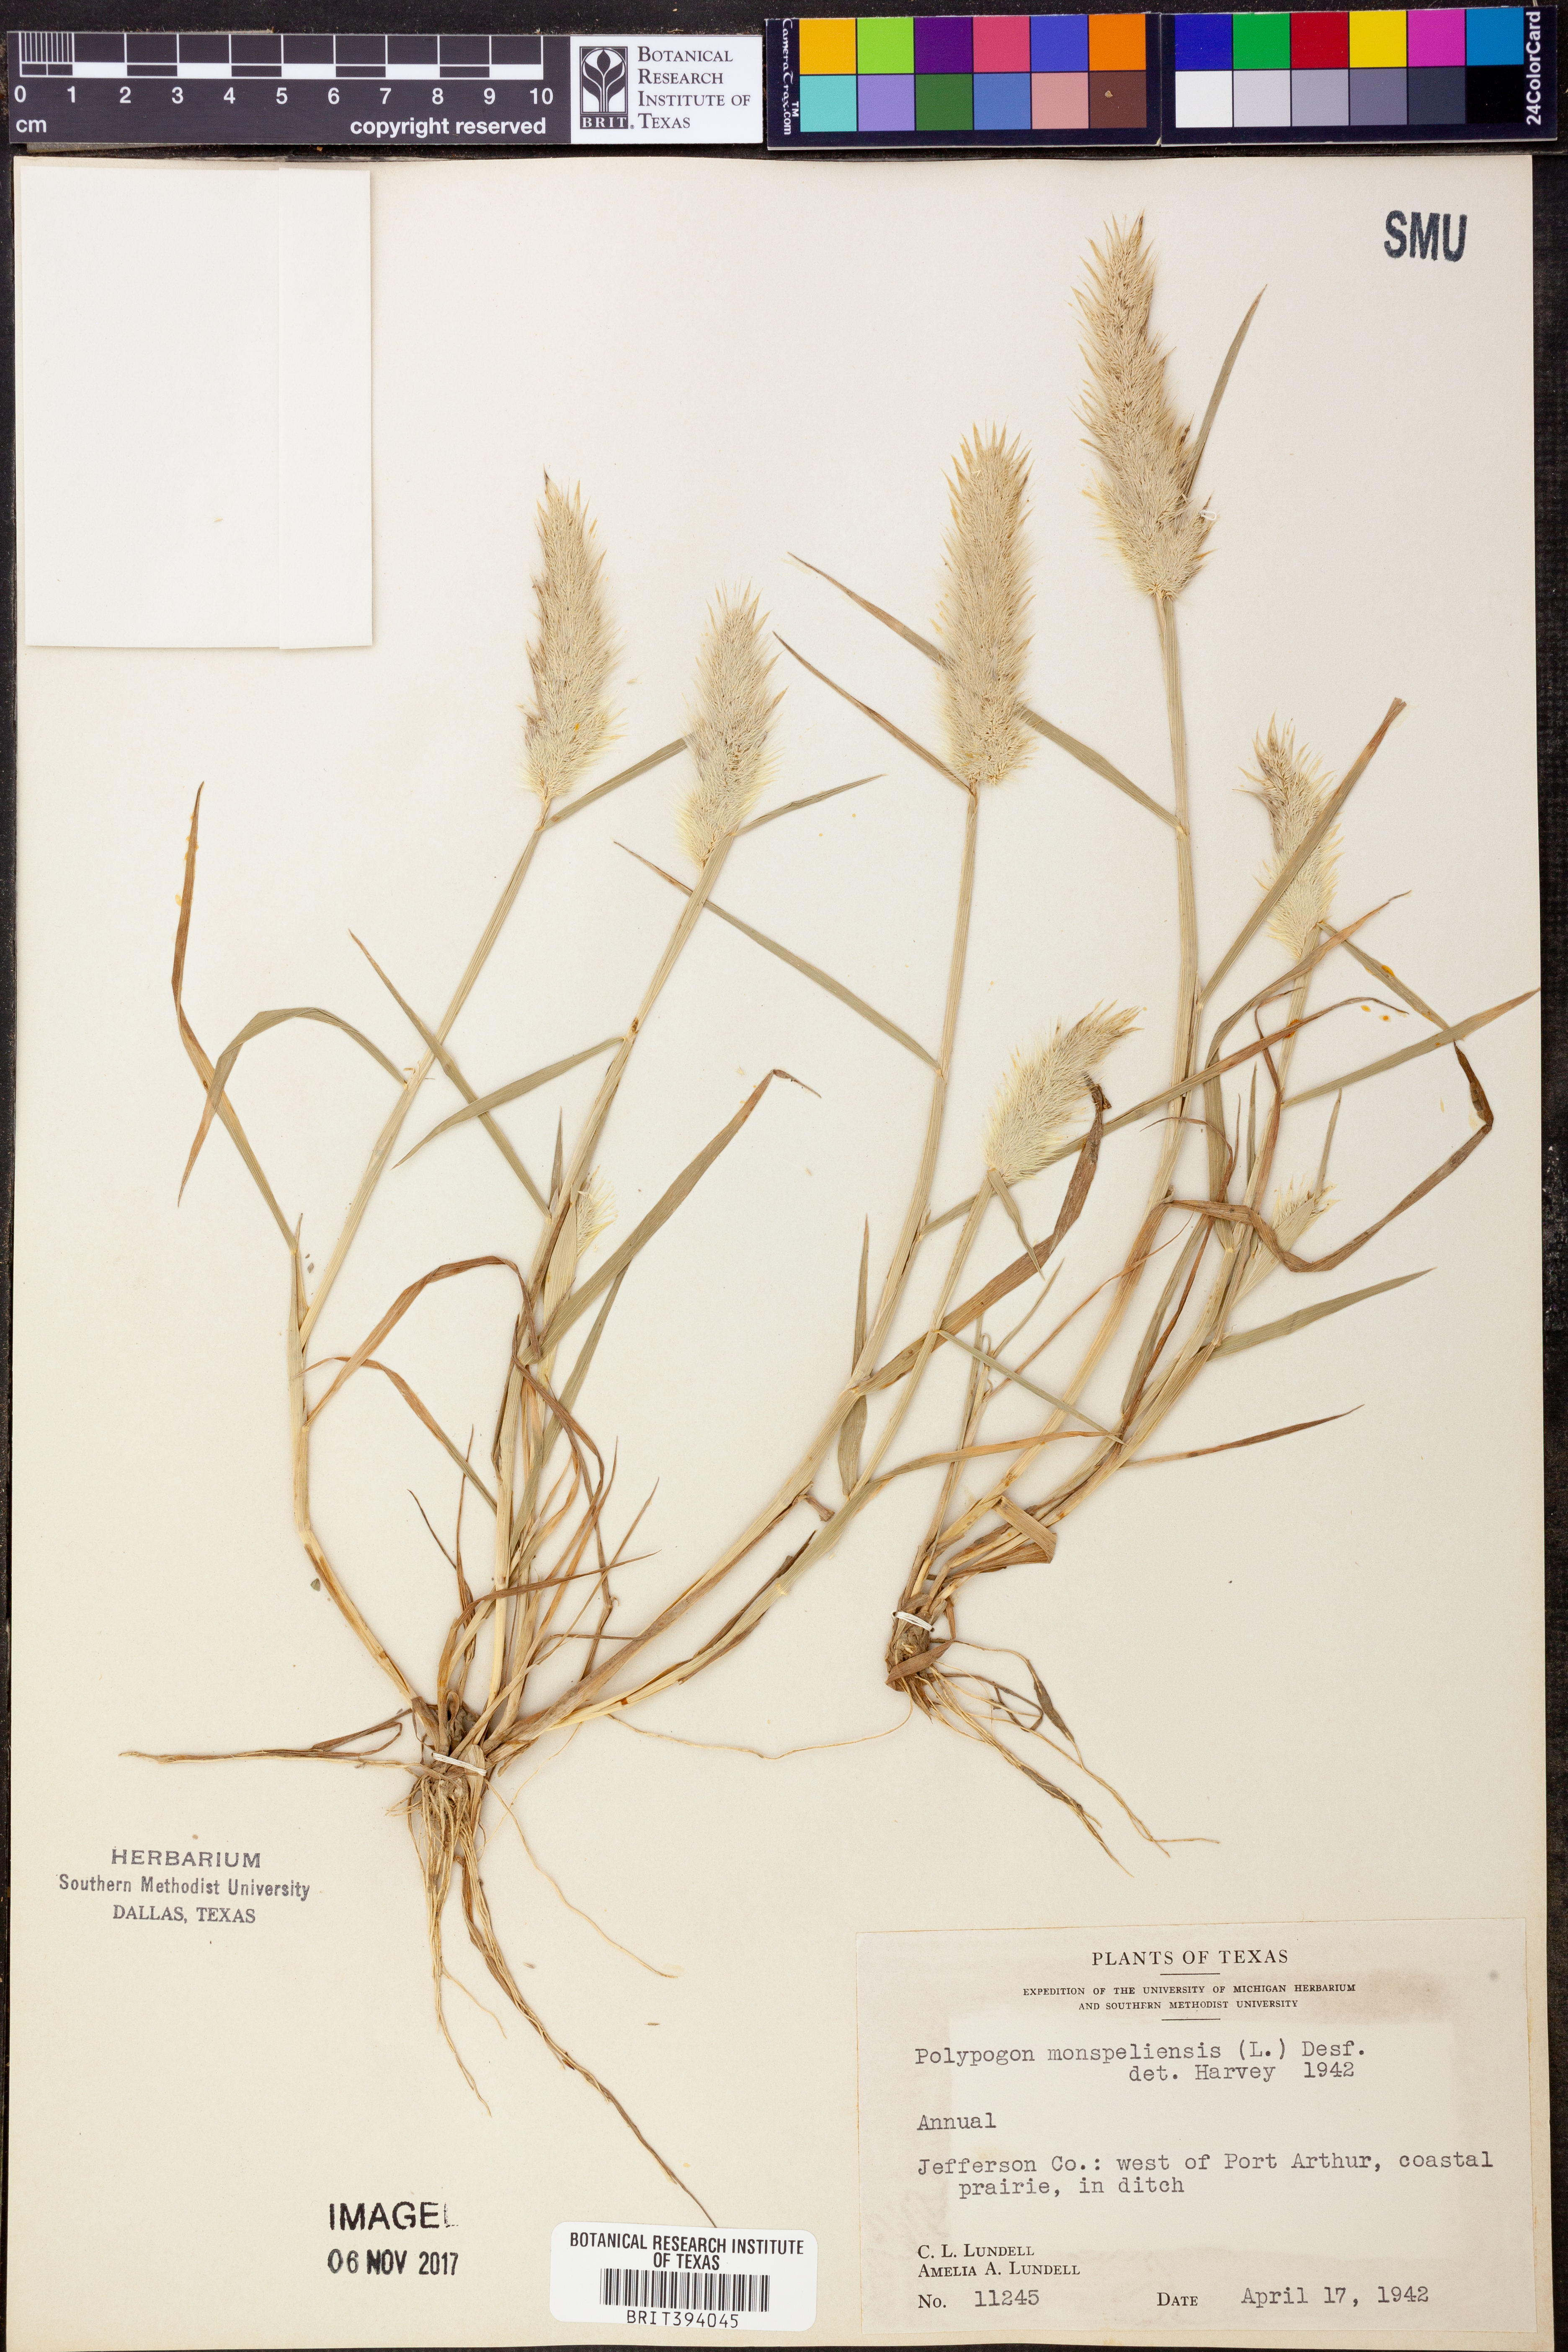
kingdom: Plantae
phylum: Tracheophyta
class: Liliopsida
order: Poales
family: Poaceae
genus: Polypogon
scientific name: Polypogon monspeliensis
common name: Annual rabbitsfoot grass
